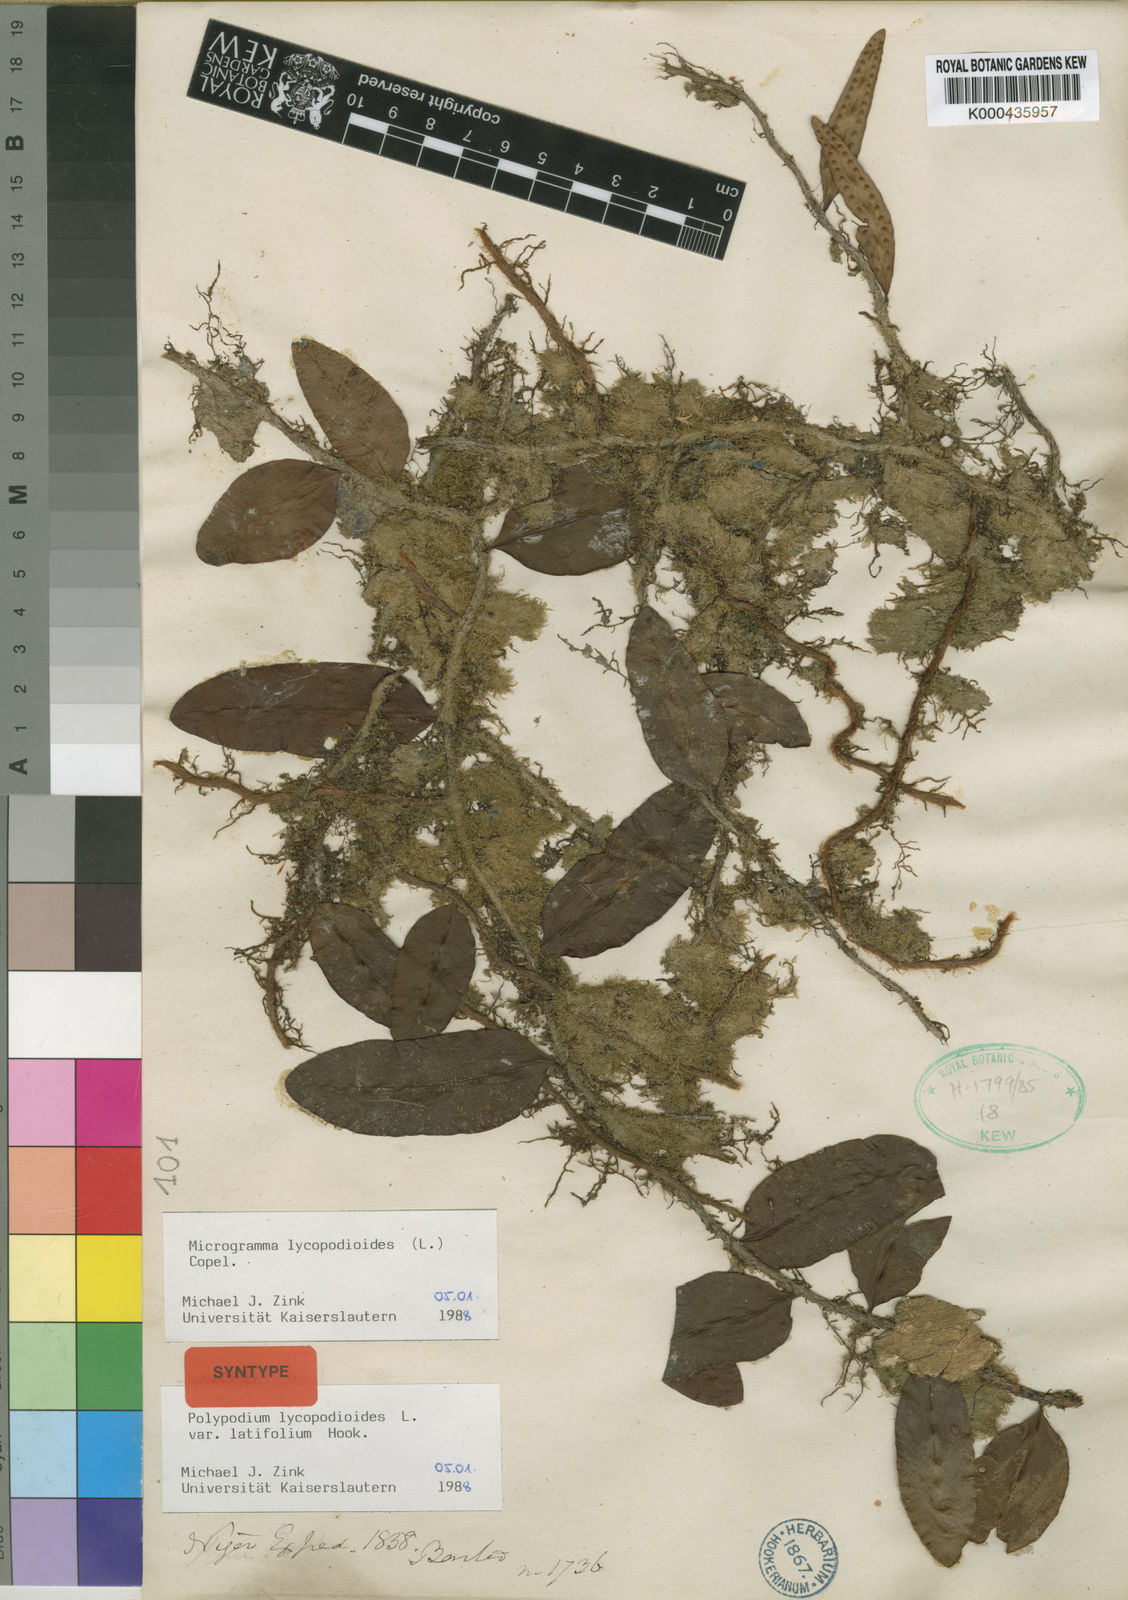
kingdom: Plantae
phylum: Tracheophyta
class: Polypodiopsida
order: Polypodiales
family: Polypodiaceae
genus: Microgramma
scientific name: Microgramma lycopodioides
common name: Bastard catclaw
